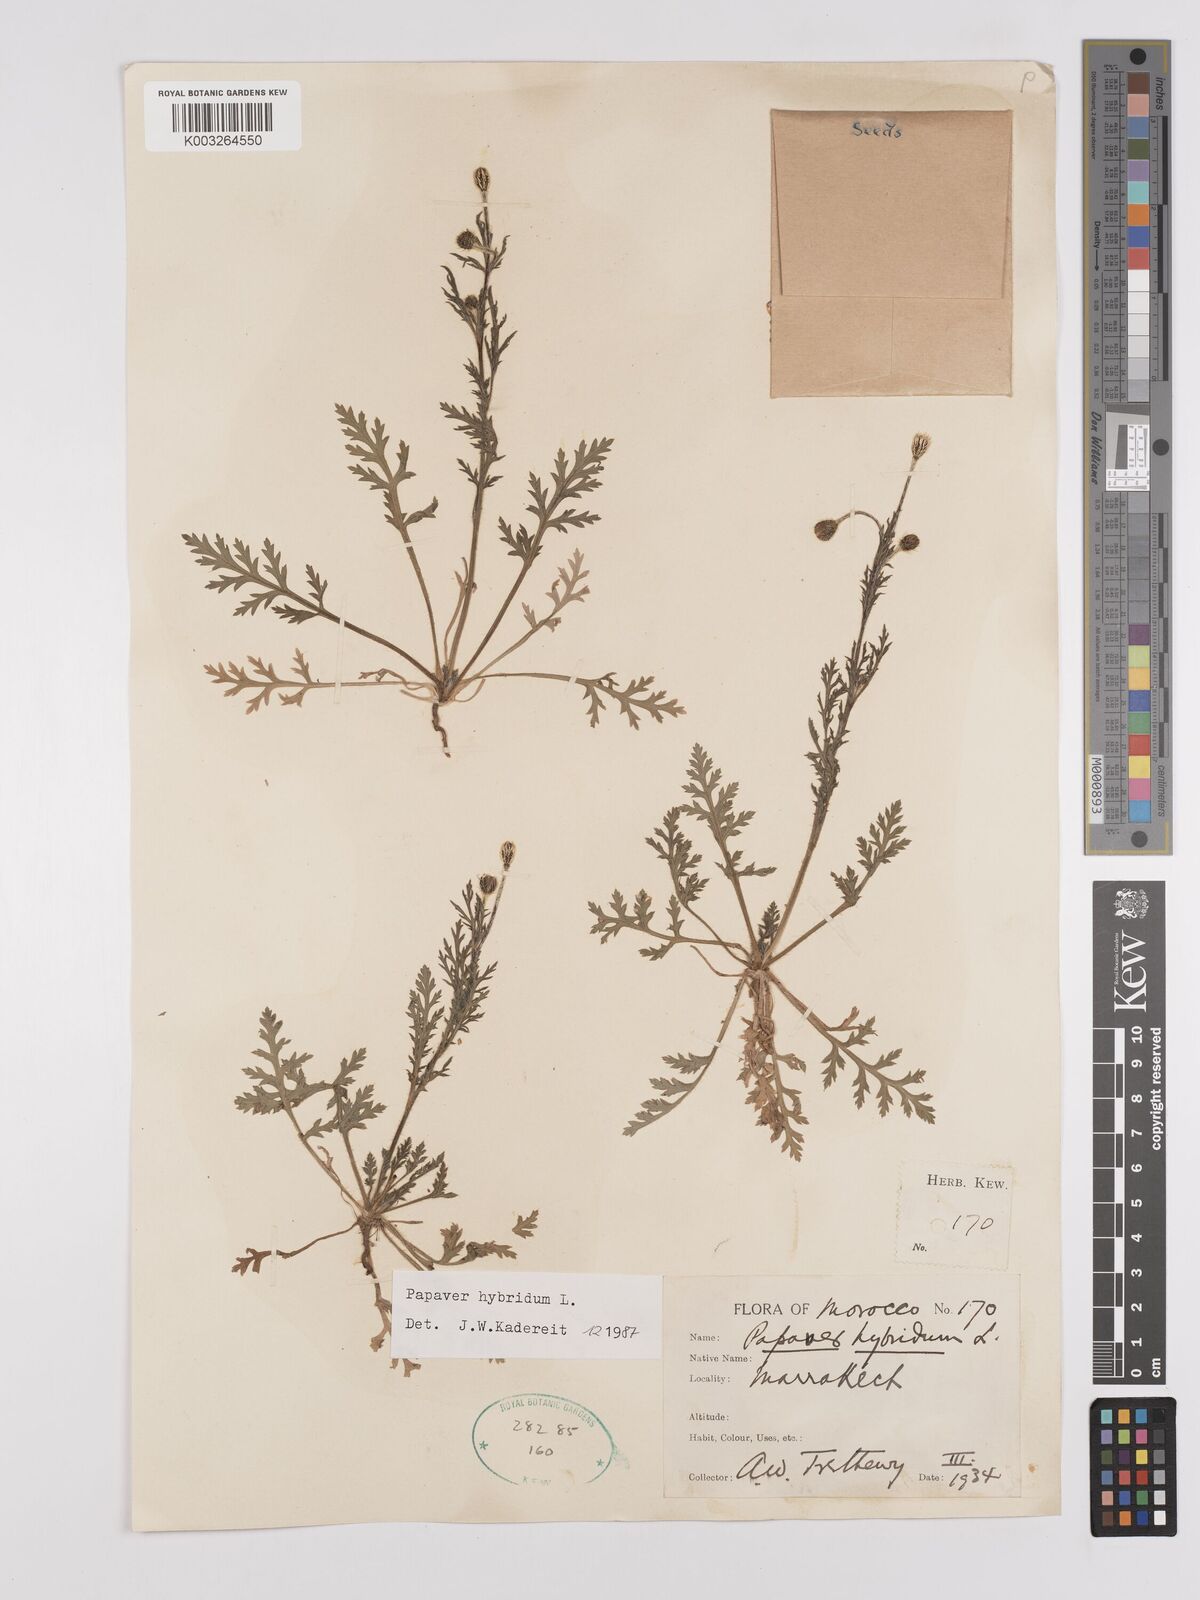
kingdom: Plantae
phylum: Tracheophyta
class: Magnoliopsida
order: Ranunculales
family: Papaveraceae
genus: Papaver
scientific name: Papaver
